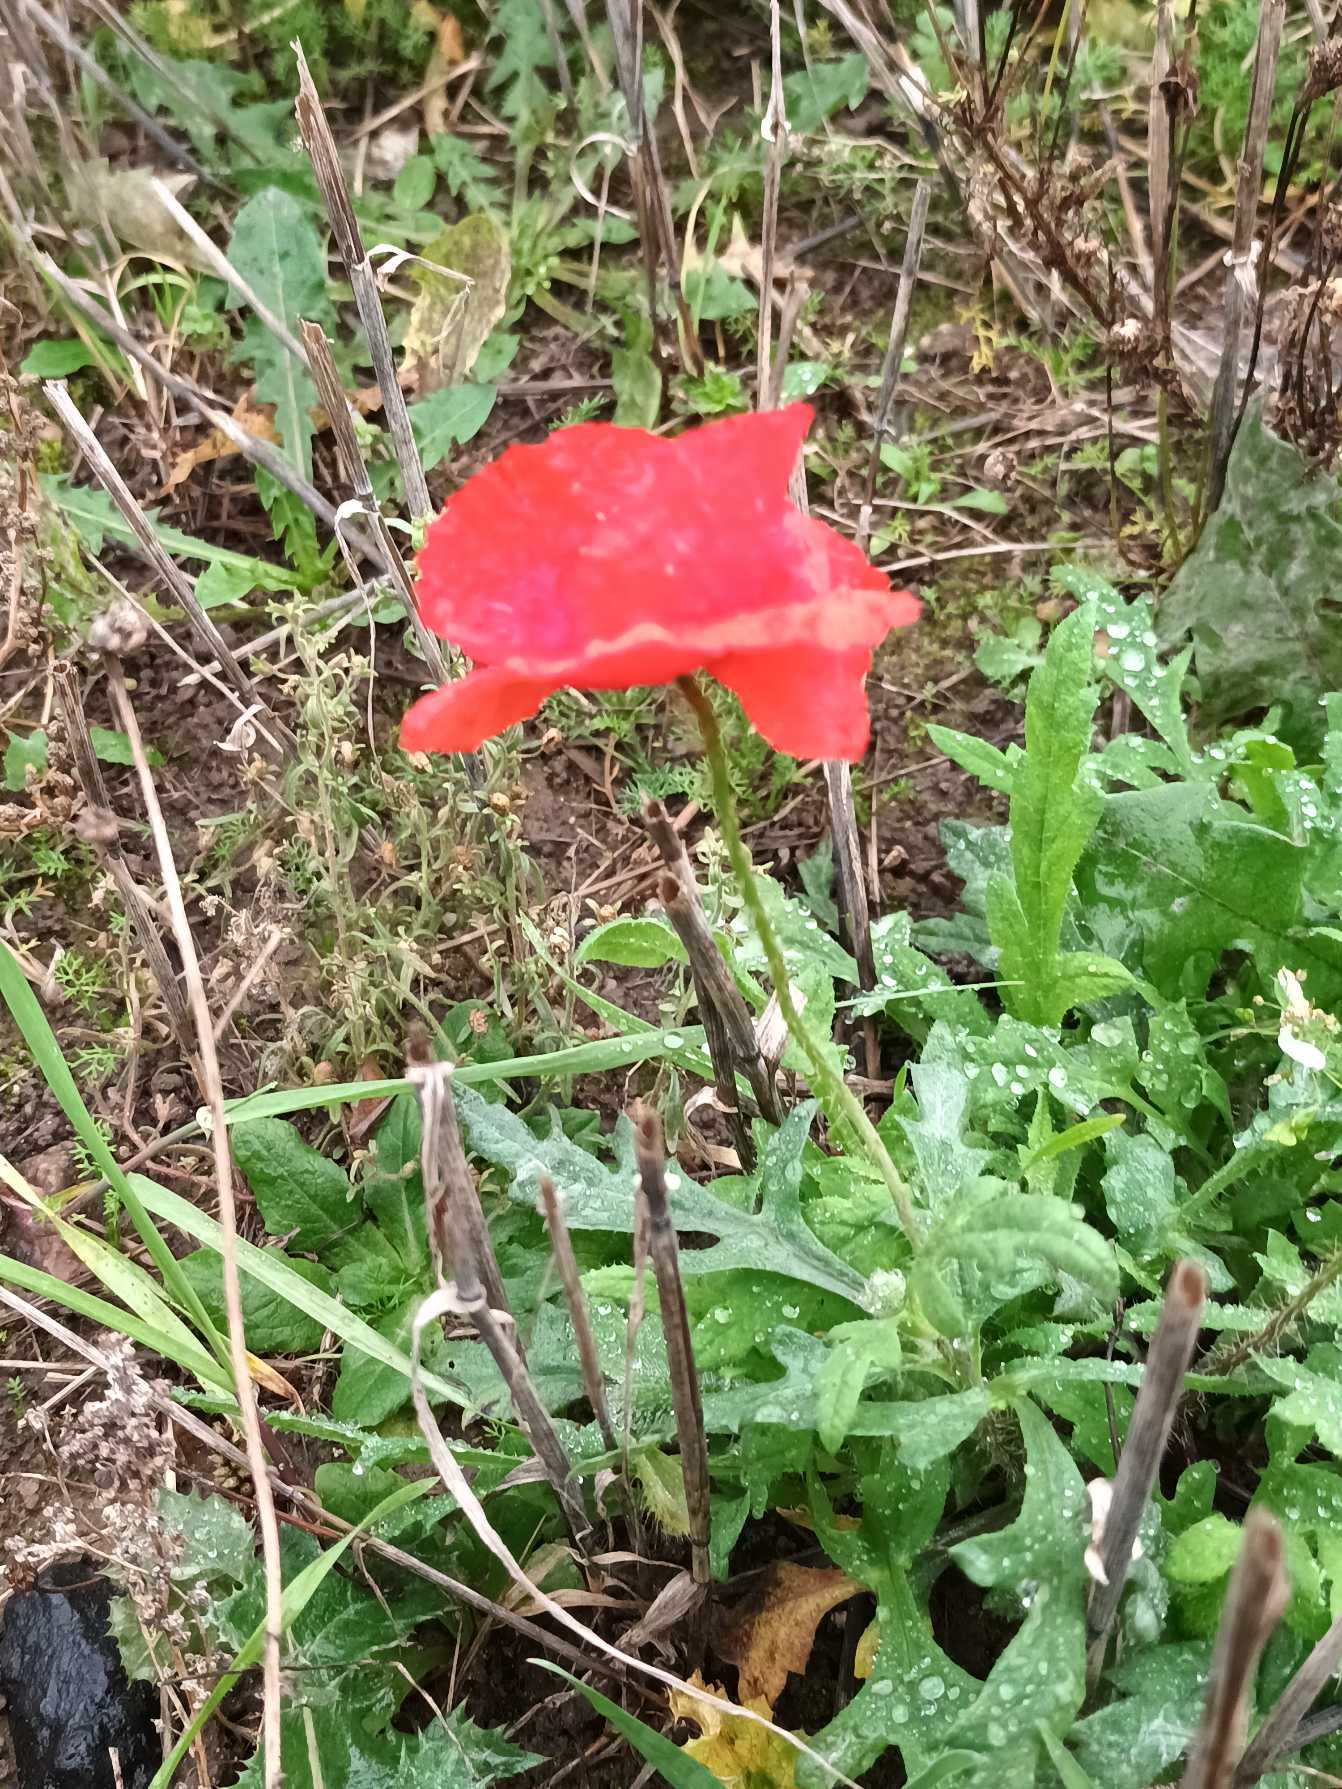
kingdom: Plantae
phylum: Tracheophyta
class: Magnoliopsida
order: Ranunculales
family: Papaveraceae
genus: Papaver
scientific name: Papaver rhoeas
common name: Korn-valmue
